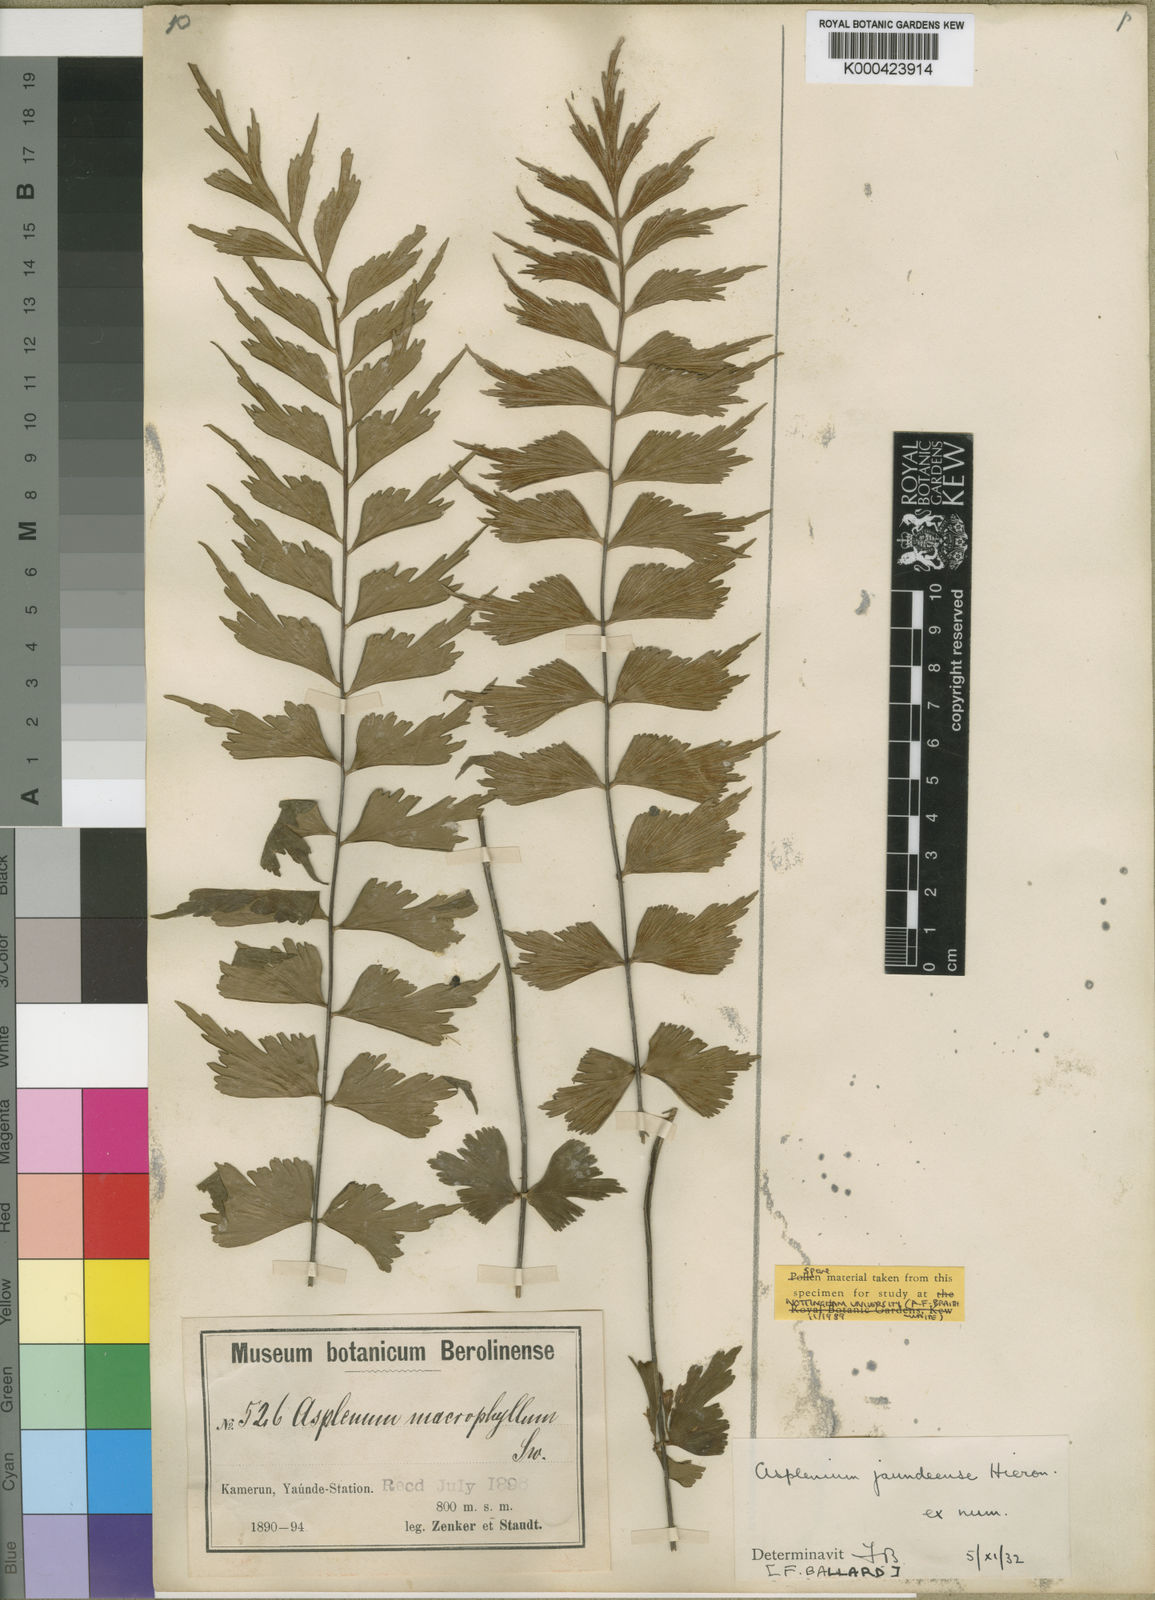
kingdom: Plantae
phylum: Tracheophyta
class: Polypodiopsida
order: Polypodiales
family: Aspleniaceae
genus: Asplenium
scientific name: Asplenium jaundeense
